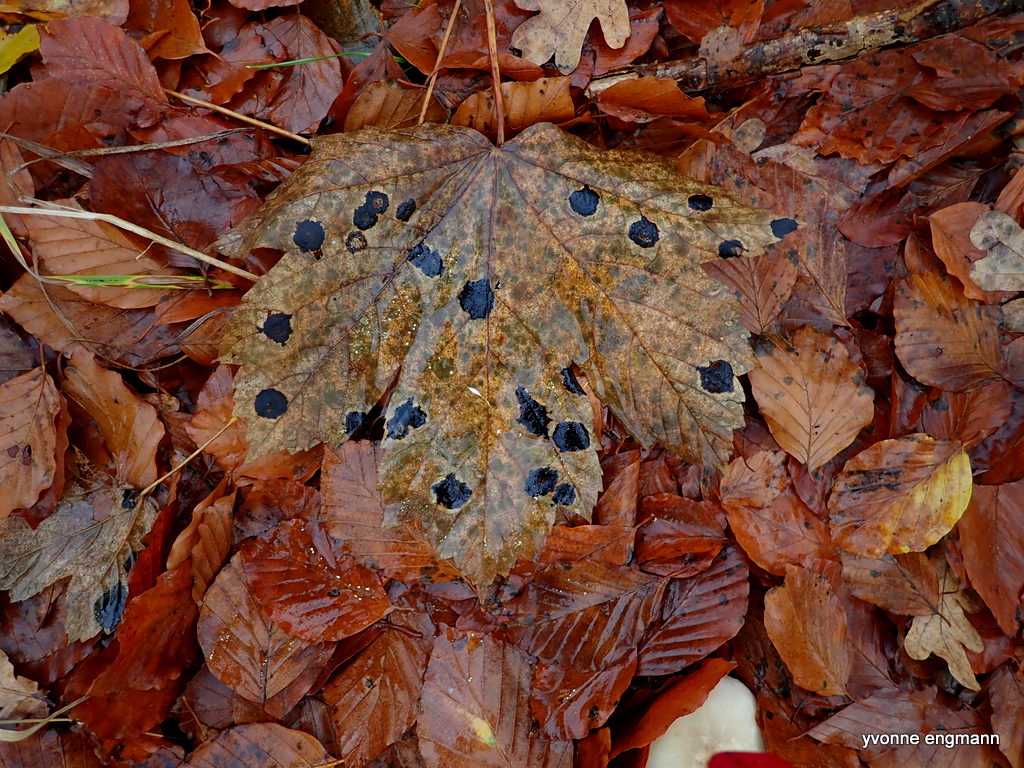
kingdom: Fungi
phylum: Ascomycota
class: Leotiomycetes
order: Rhytismatales
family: Rhytismataceae
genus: Rhytisma
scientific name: Rhytisma acerinum
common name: ahorn-rynkeplet
